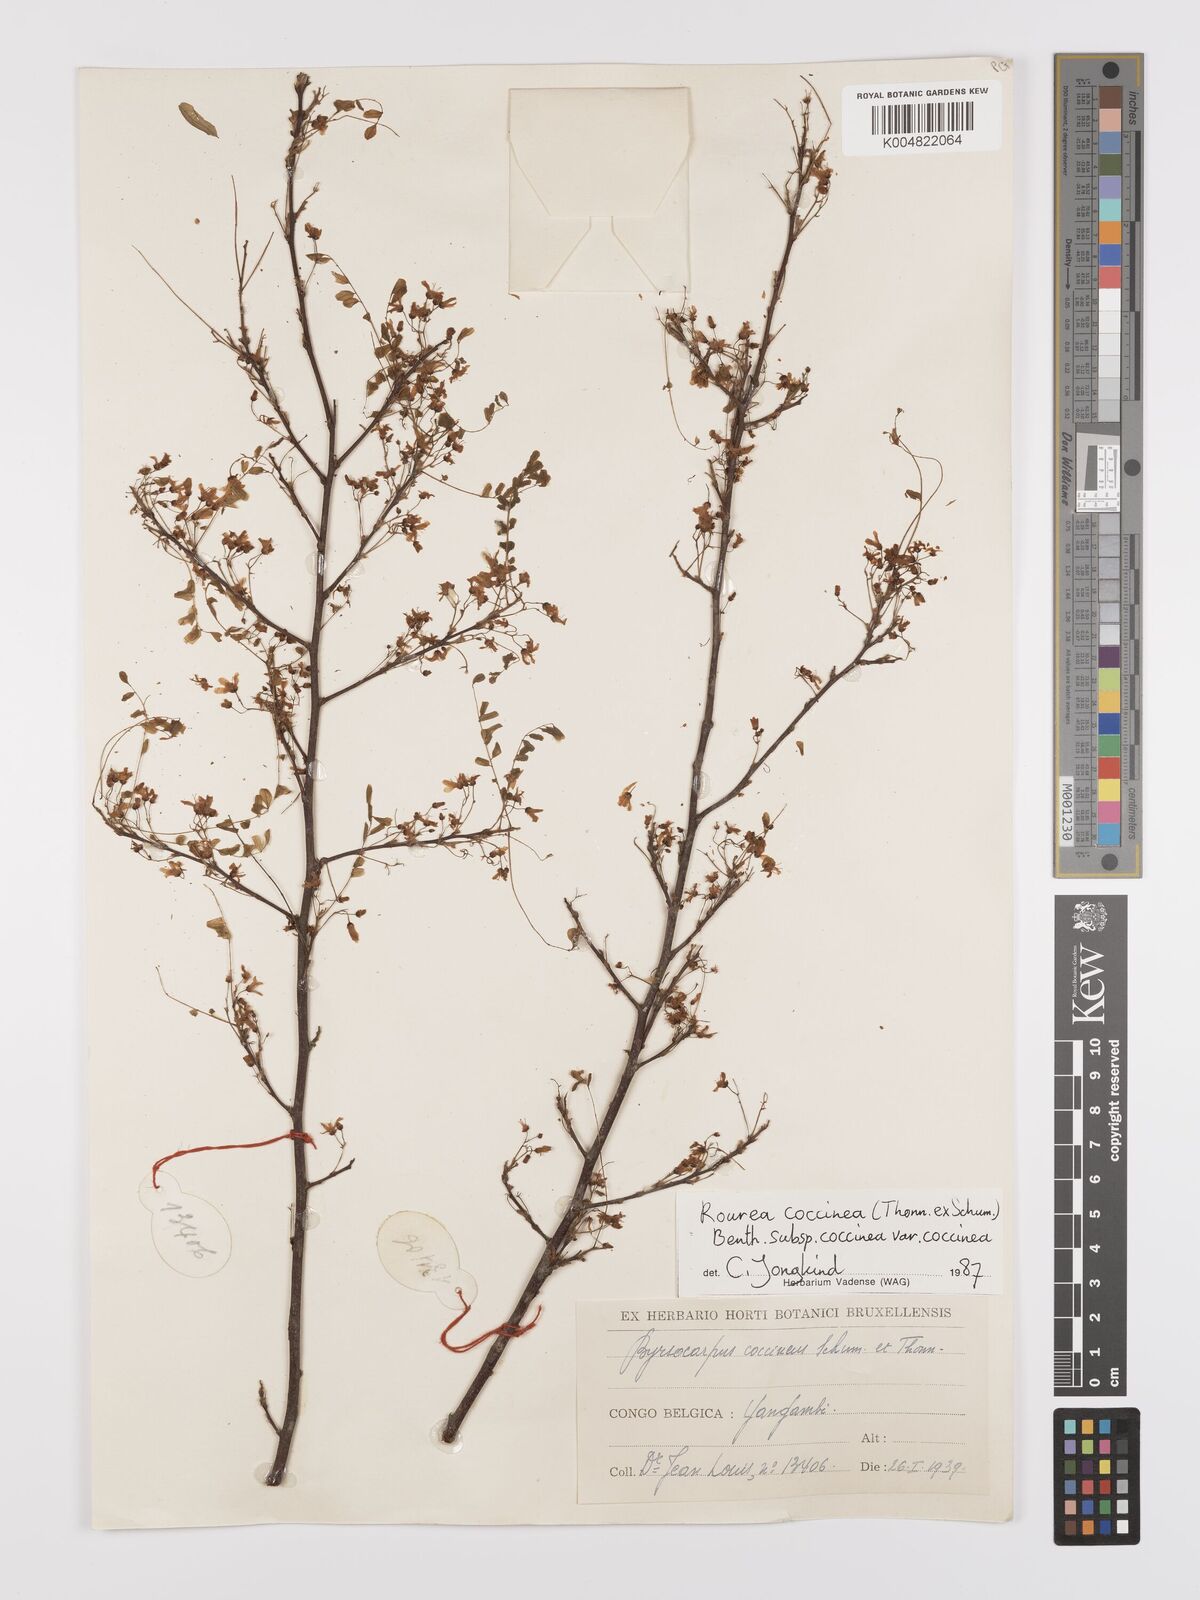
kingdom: Plantae
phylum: Tracheophyta
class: Magnoliopsida
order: Oxalidales
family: Connaraceae
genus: Rourea
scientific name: Rourea coccinea
